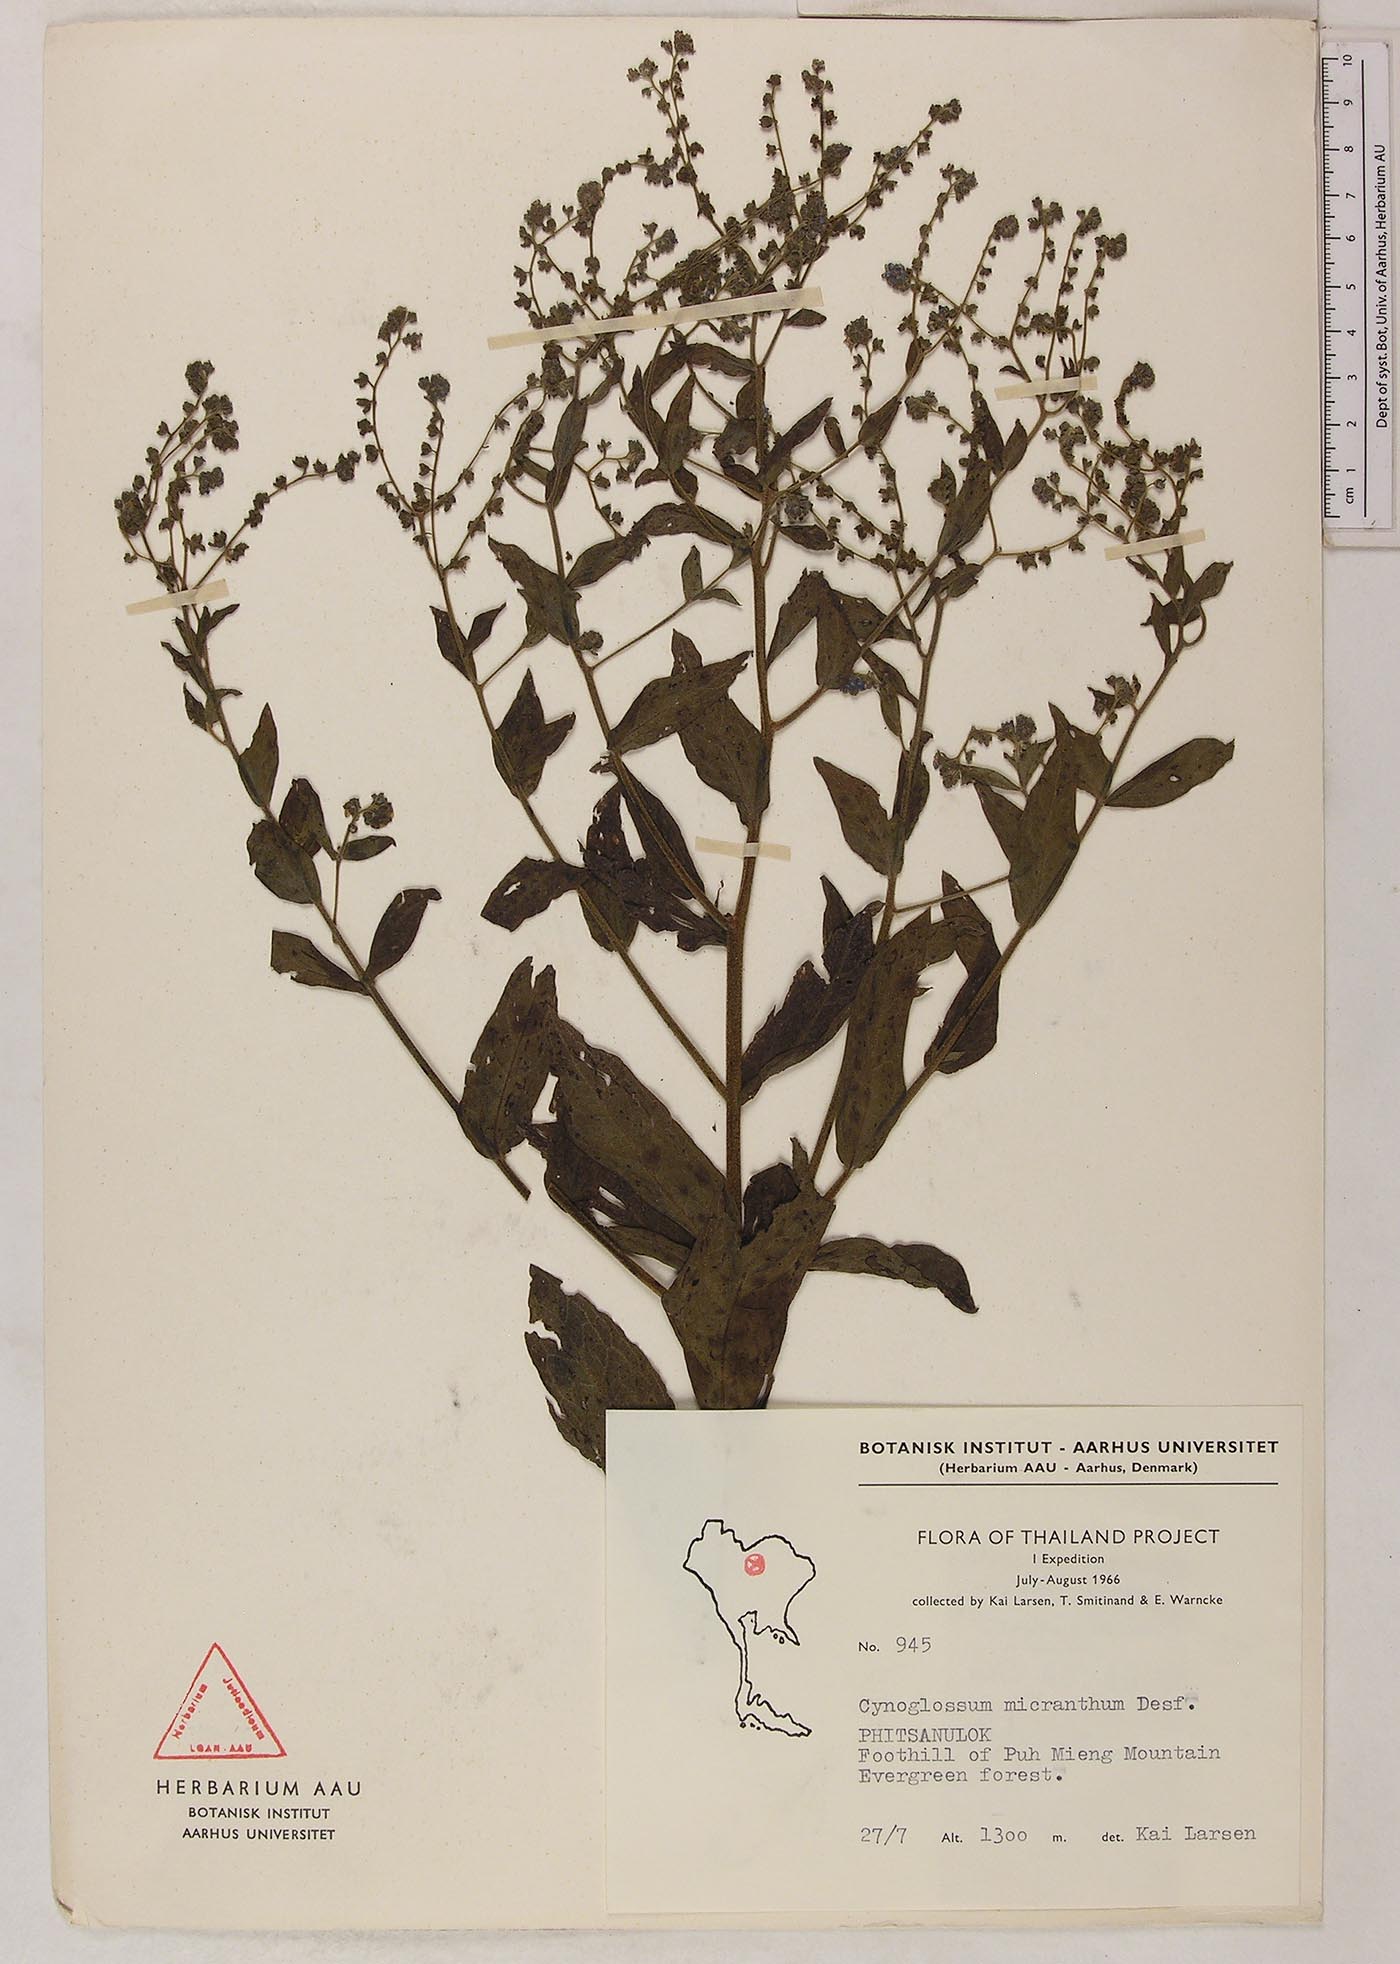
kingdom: Plantae
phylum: Tracheophyta
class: Magnoliopsida
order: Boraginales
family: Boraginaceae
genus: Rochelia
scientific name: Rochelia zeylanica
